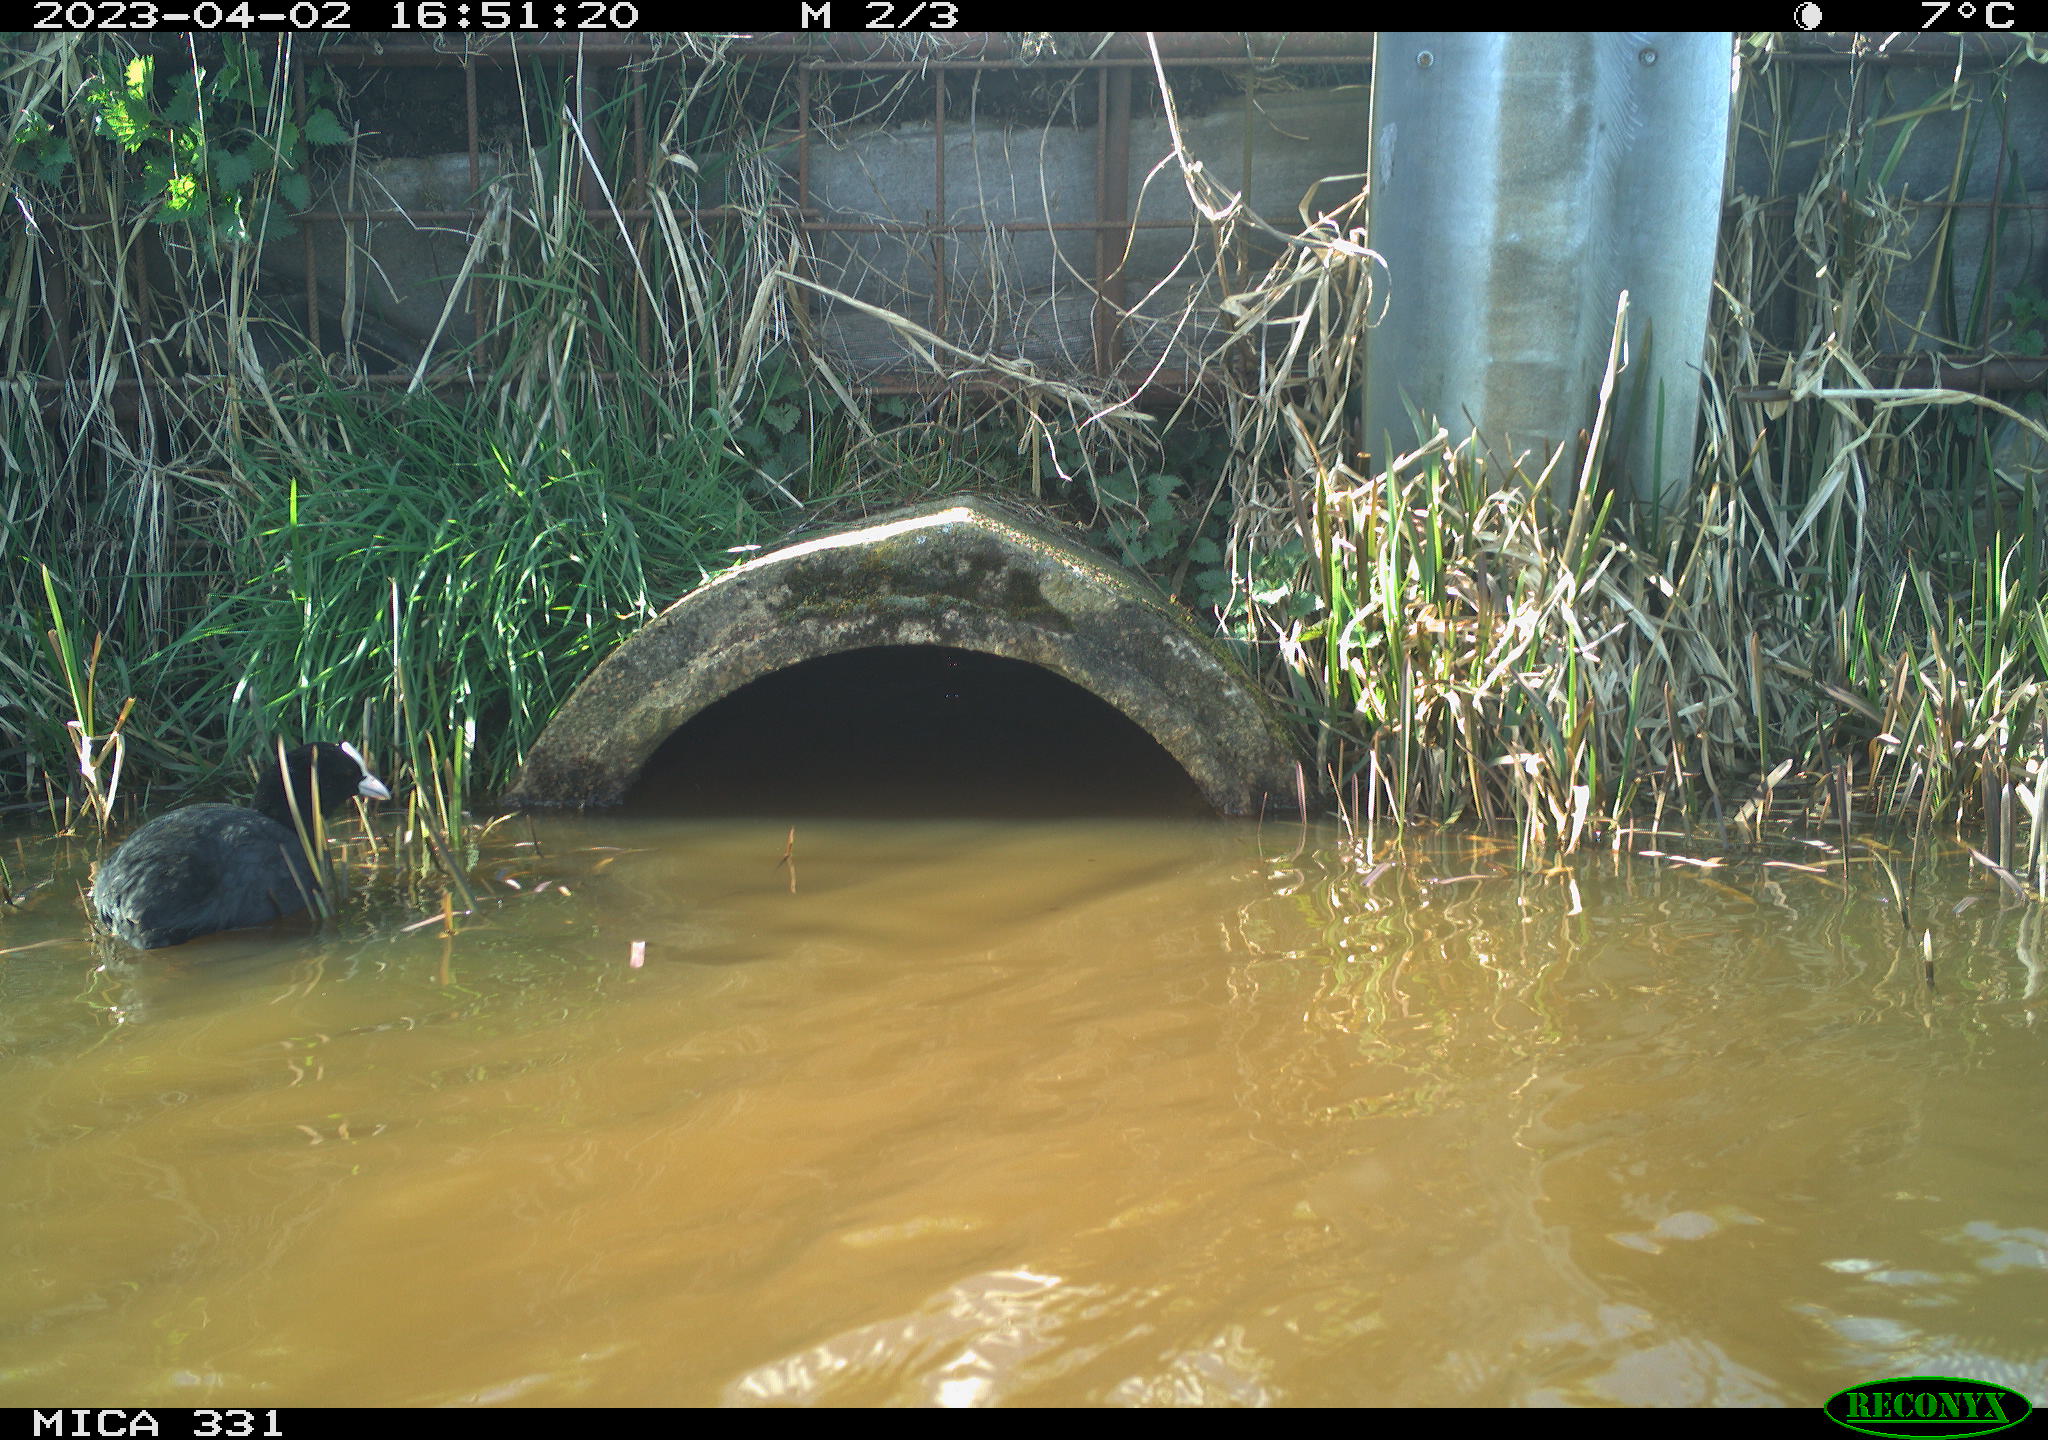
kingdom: Animalia
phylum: Chordata
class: Aves
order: Gruiformes
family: Rallidae
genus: Fulica
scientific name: Fulica atra
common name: Eurasian coot
